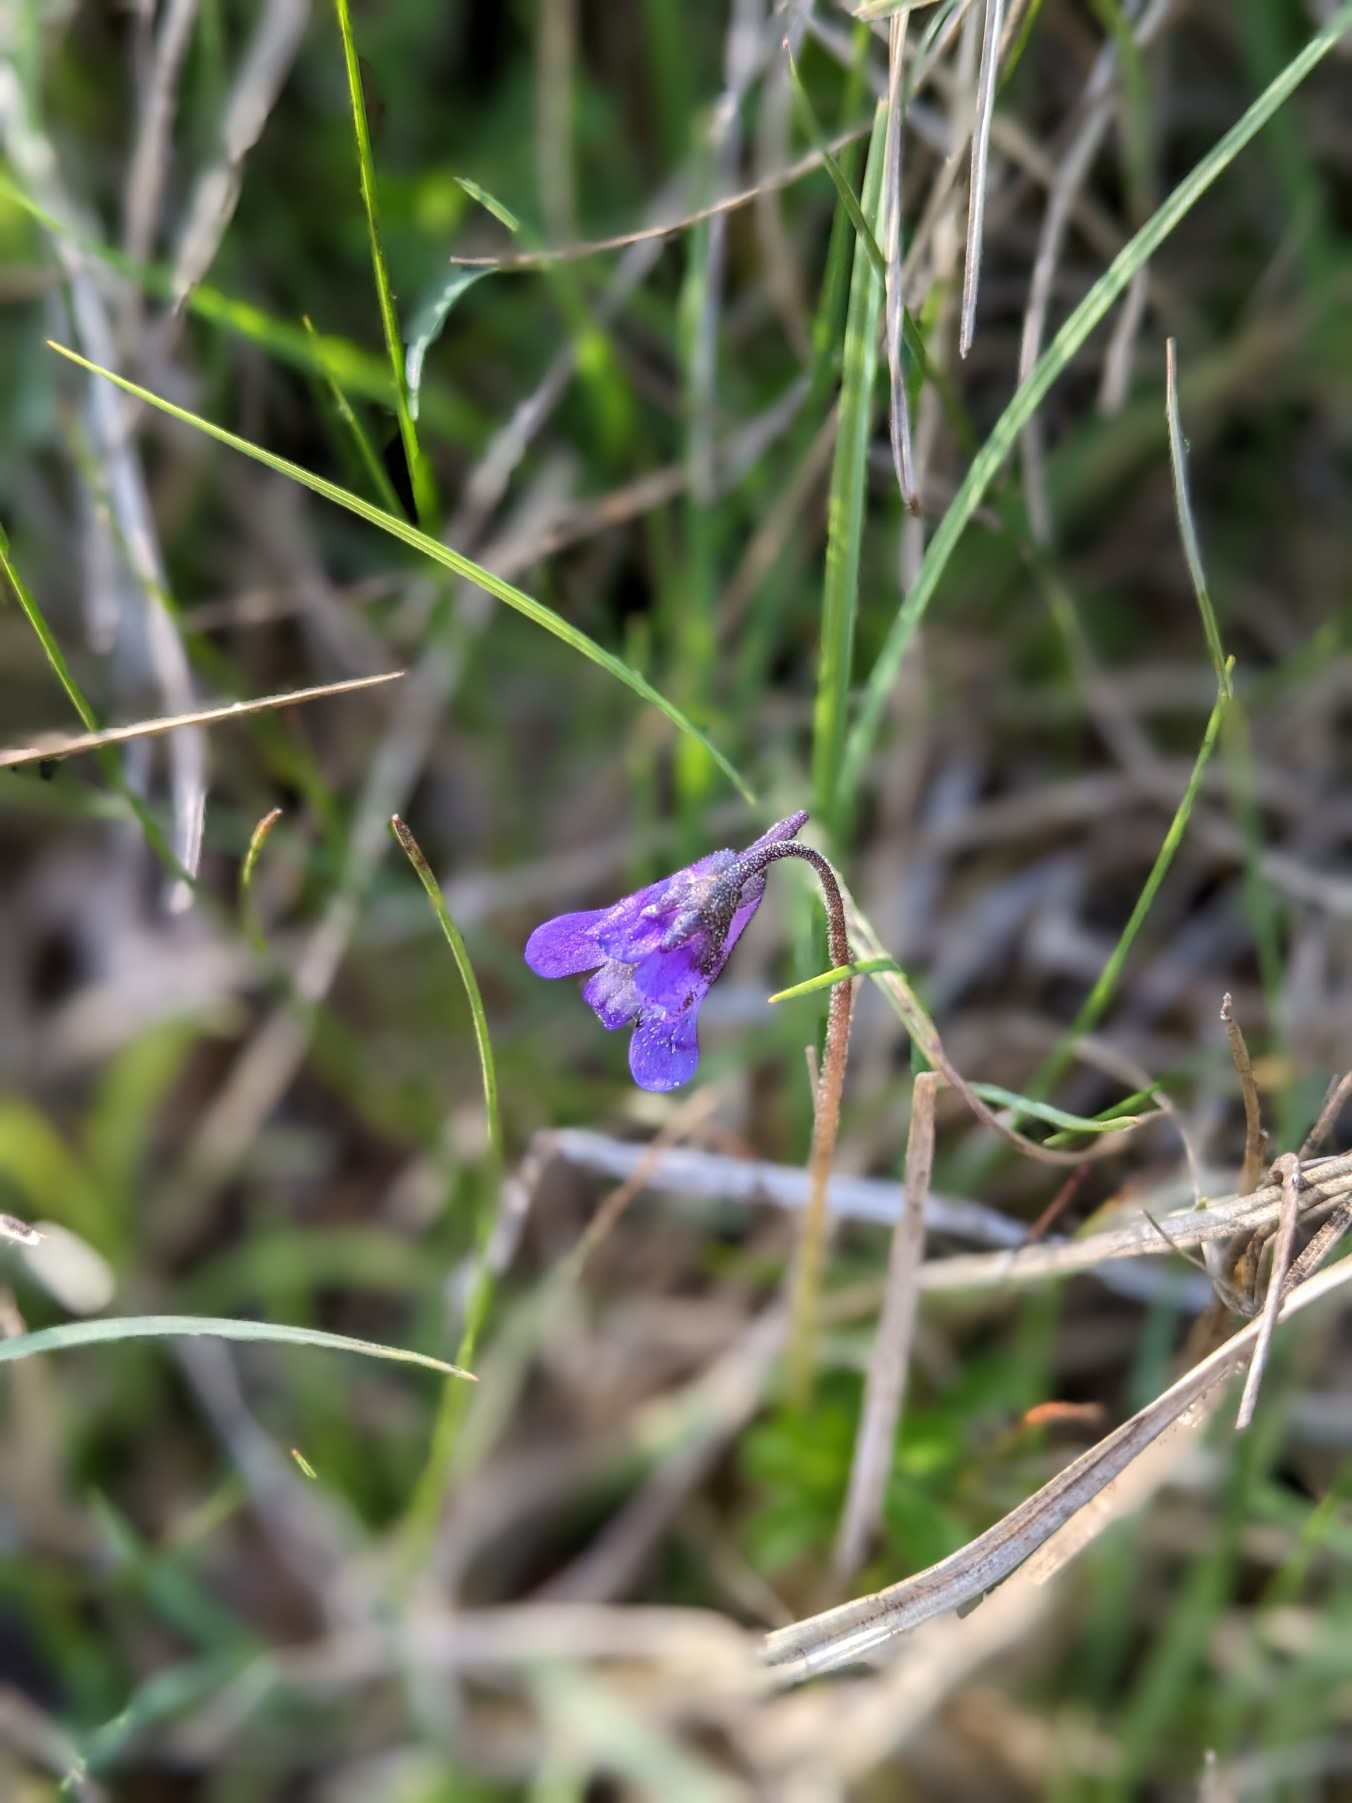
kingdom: Plantae
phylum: Tracheophyta
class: Magnoliopsida
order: Lamiales
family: Lentibulariaceae
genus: Pinguicula
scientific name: Pinguicula vulgaris
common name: Vibefedt
